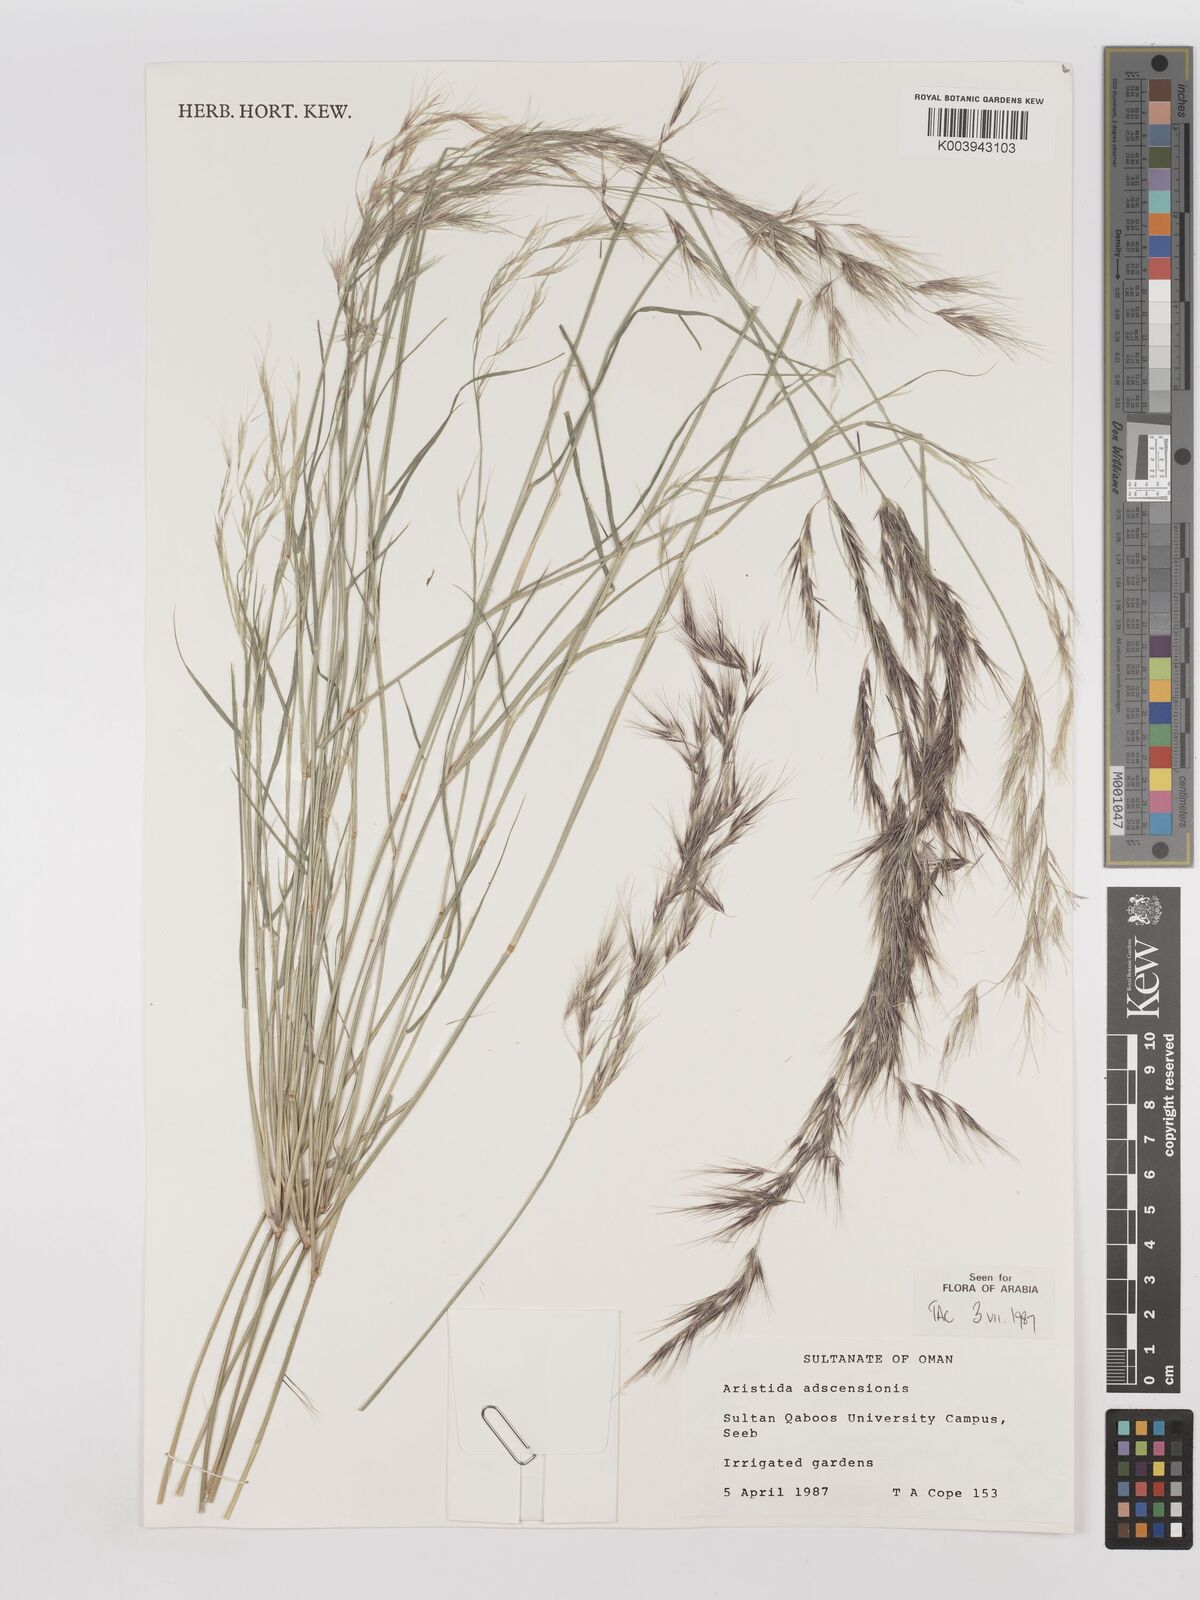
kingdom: Plantae
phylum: Tracheophyta
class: Liliopsida
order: Poales
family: Poaceae
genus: Aristida
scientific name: Aristida adscensionis
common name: Sixweeks threeawn
